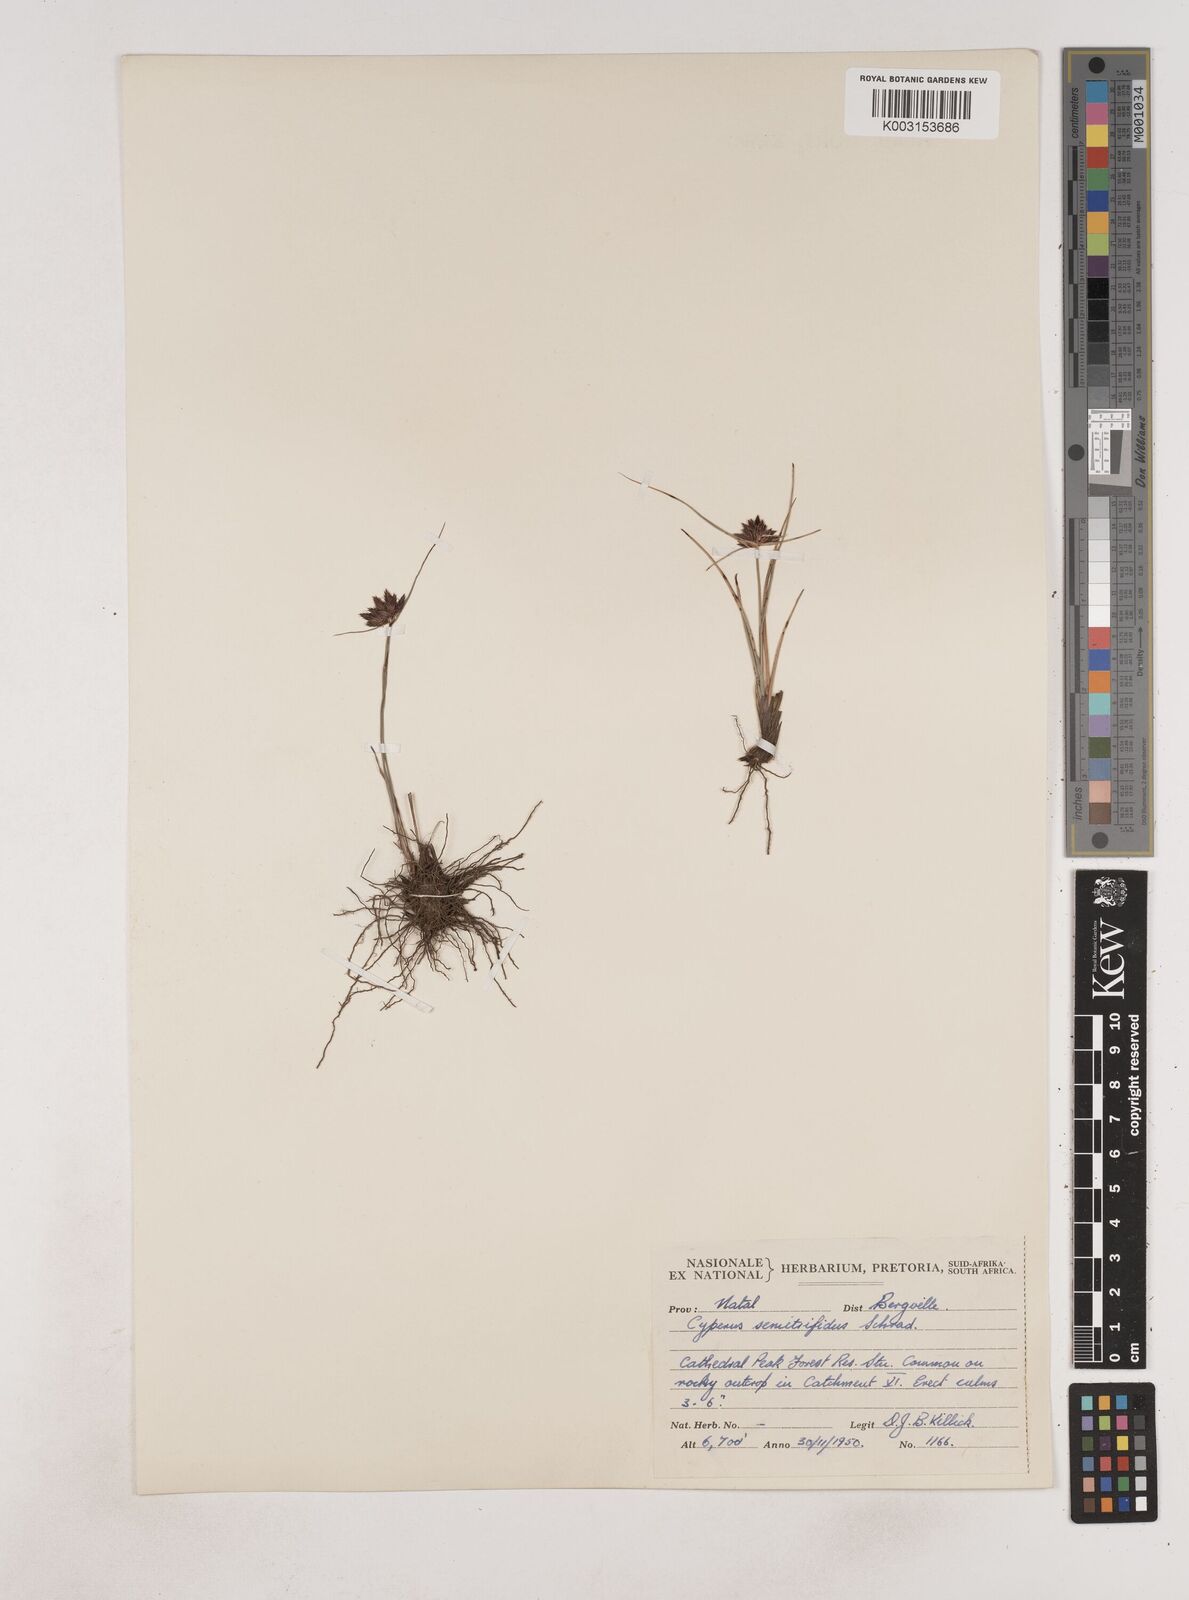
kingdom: Plantae
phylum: Tracheophyta
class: Liliopsida
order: Poales
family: Cyperaceae
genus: Cyperus
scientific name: Cyperus semitrifidus
